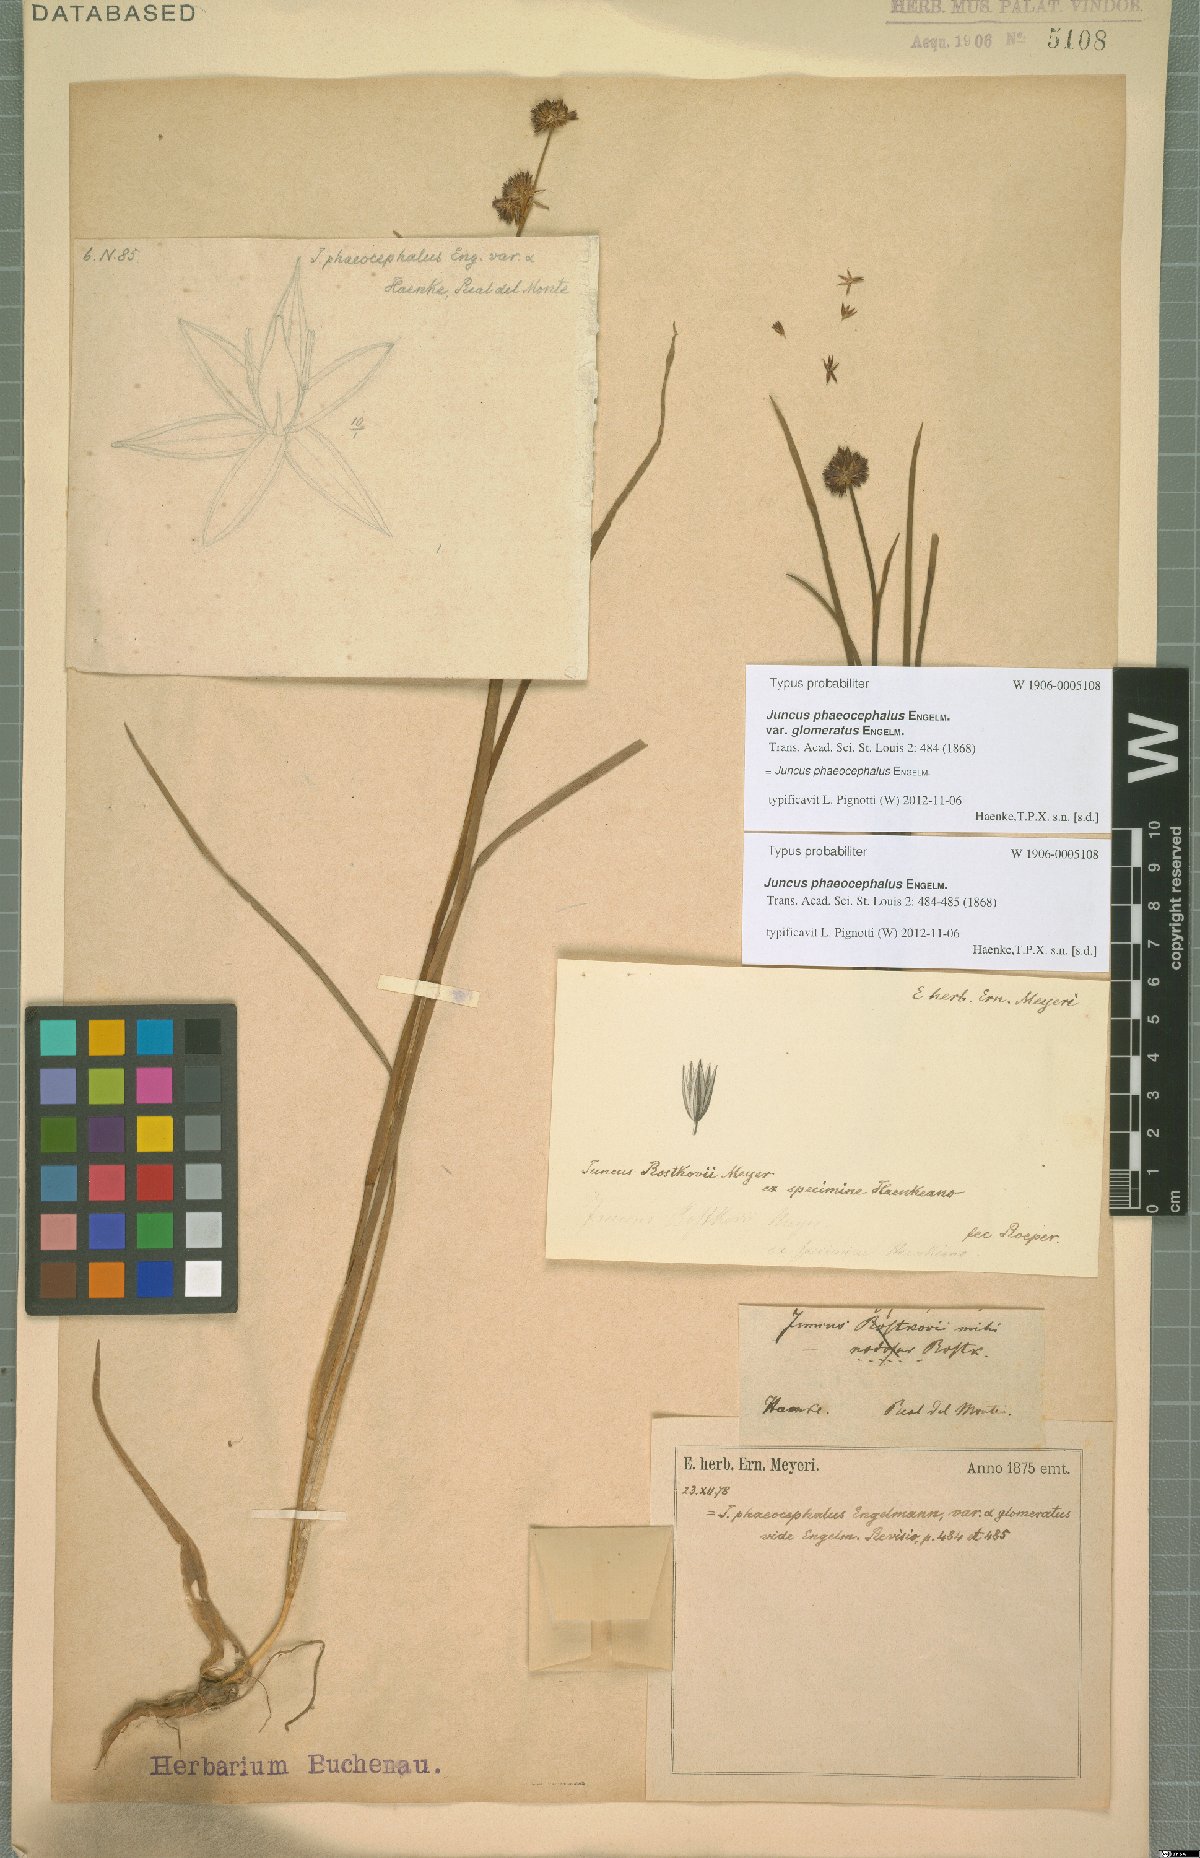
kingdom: Plantae
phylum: Tracheophyta
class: Liliopsida
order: Poales
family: Juncaceae
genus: Juncus
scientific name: Juncus phaeocephalus
